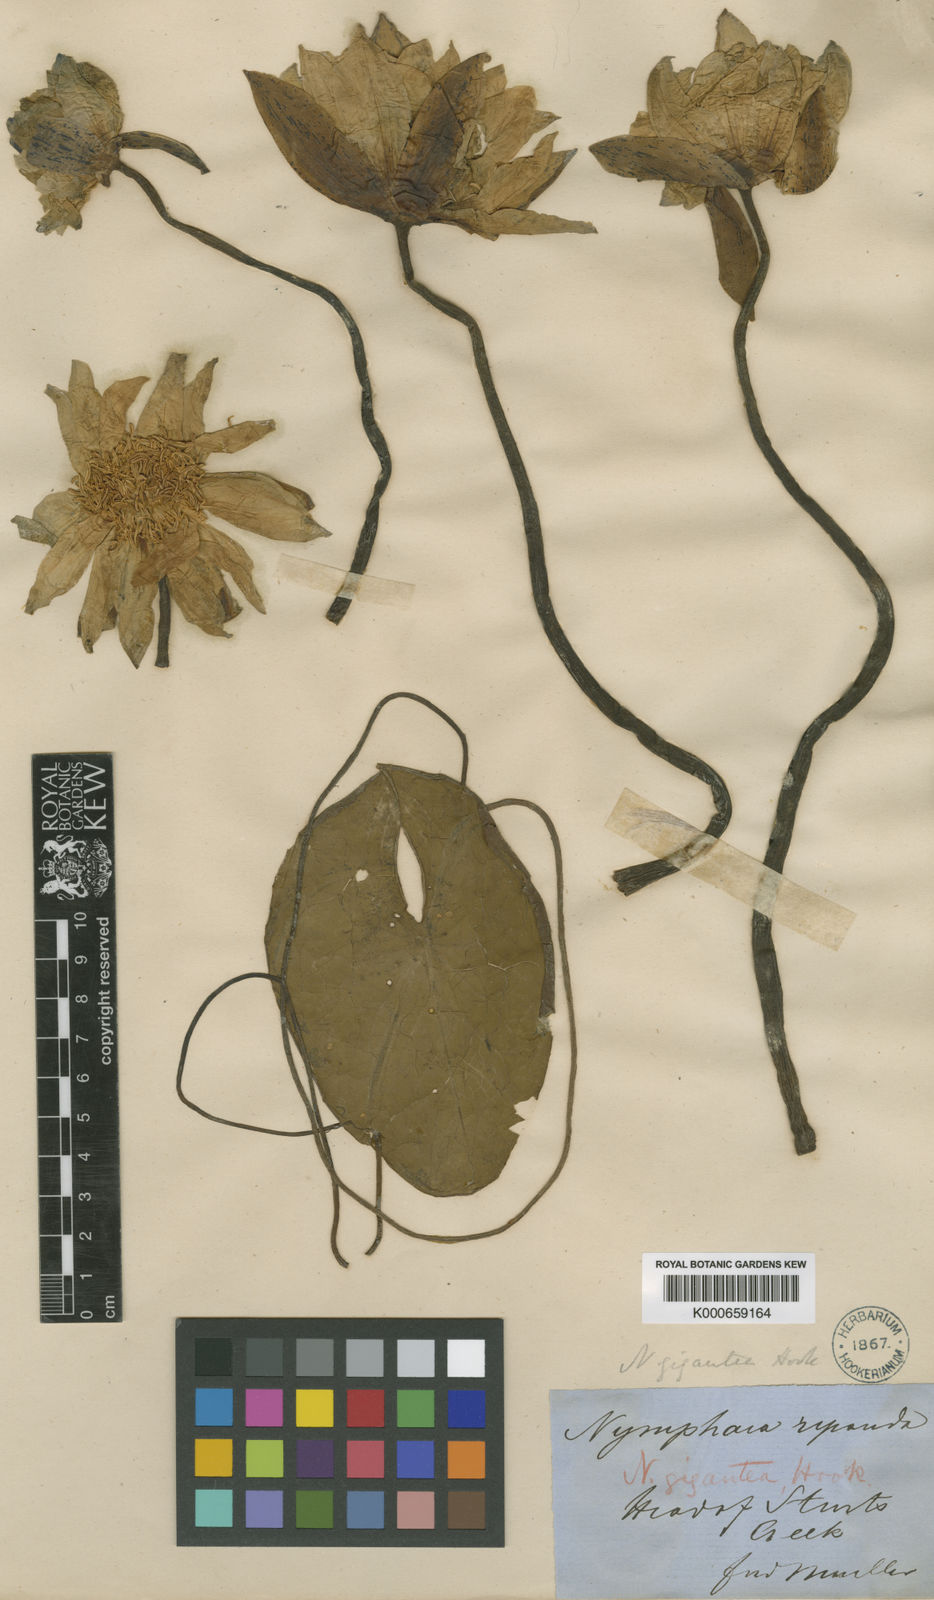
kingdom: Plantae
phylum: Tracheophyta
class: Magnoliopsida
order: Nymphaeales
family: Nymphaeaceae
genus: Nymphaea
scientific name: Nymphaea violacea
